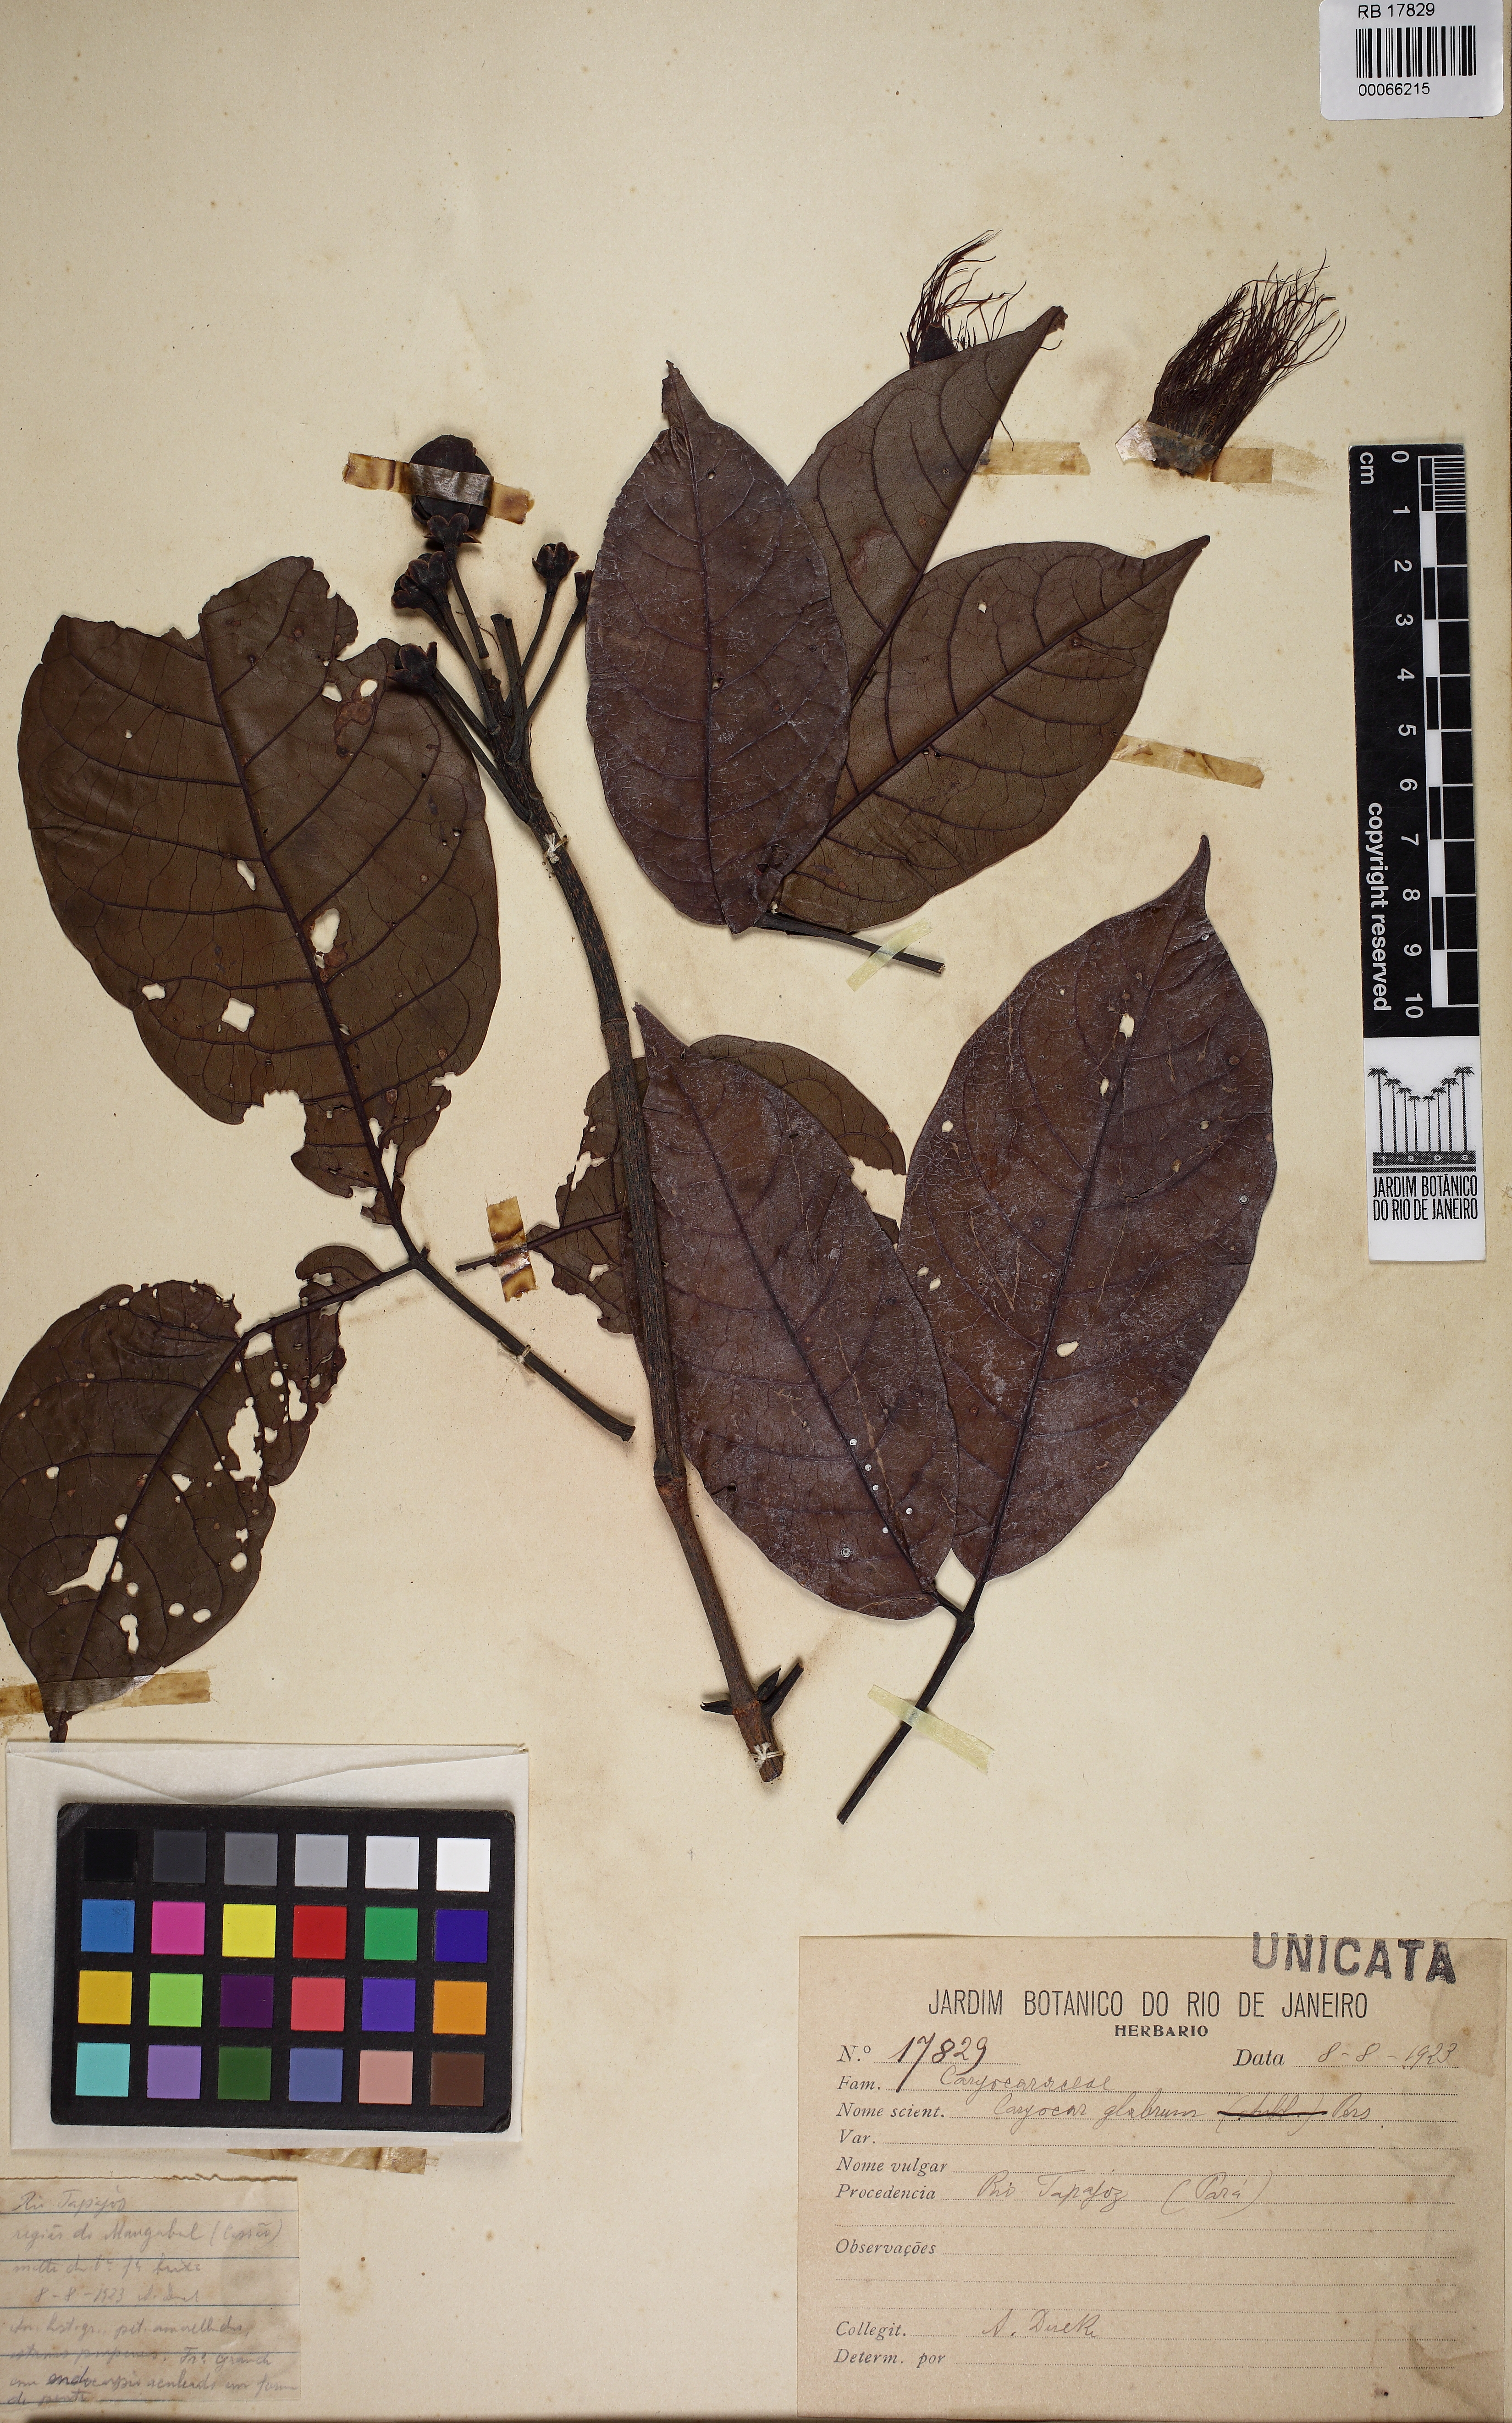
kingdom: Plantae
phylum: Tracheophyta
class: Magnoliopsida
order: Malpighiales
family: Caryocaraceae
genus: Caryocar
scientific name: Caryocar glabrum
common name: Bat's souari
